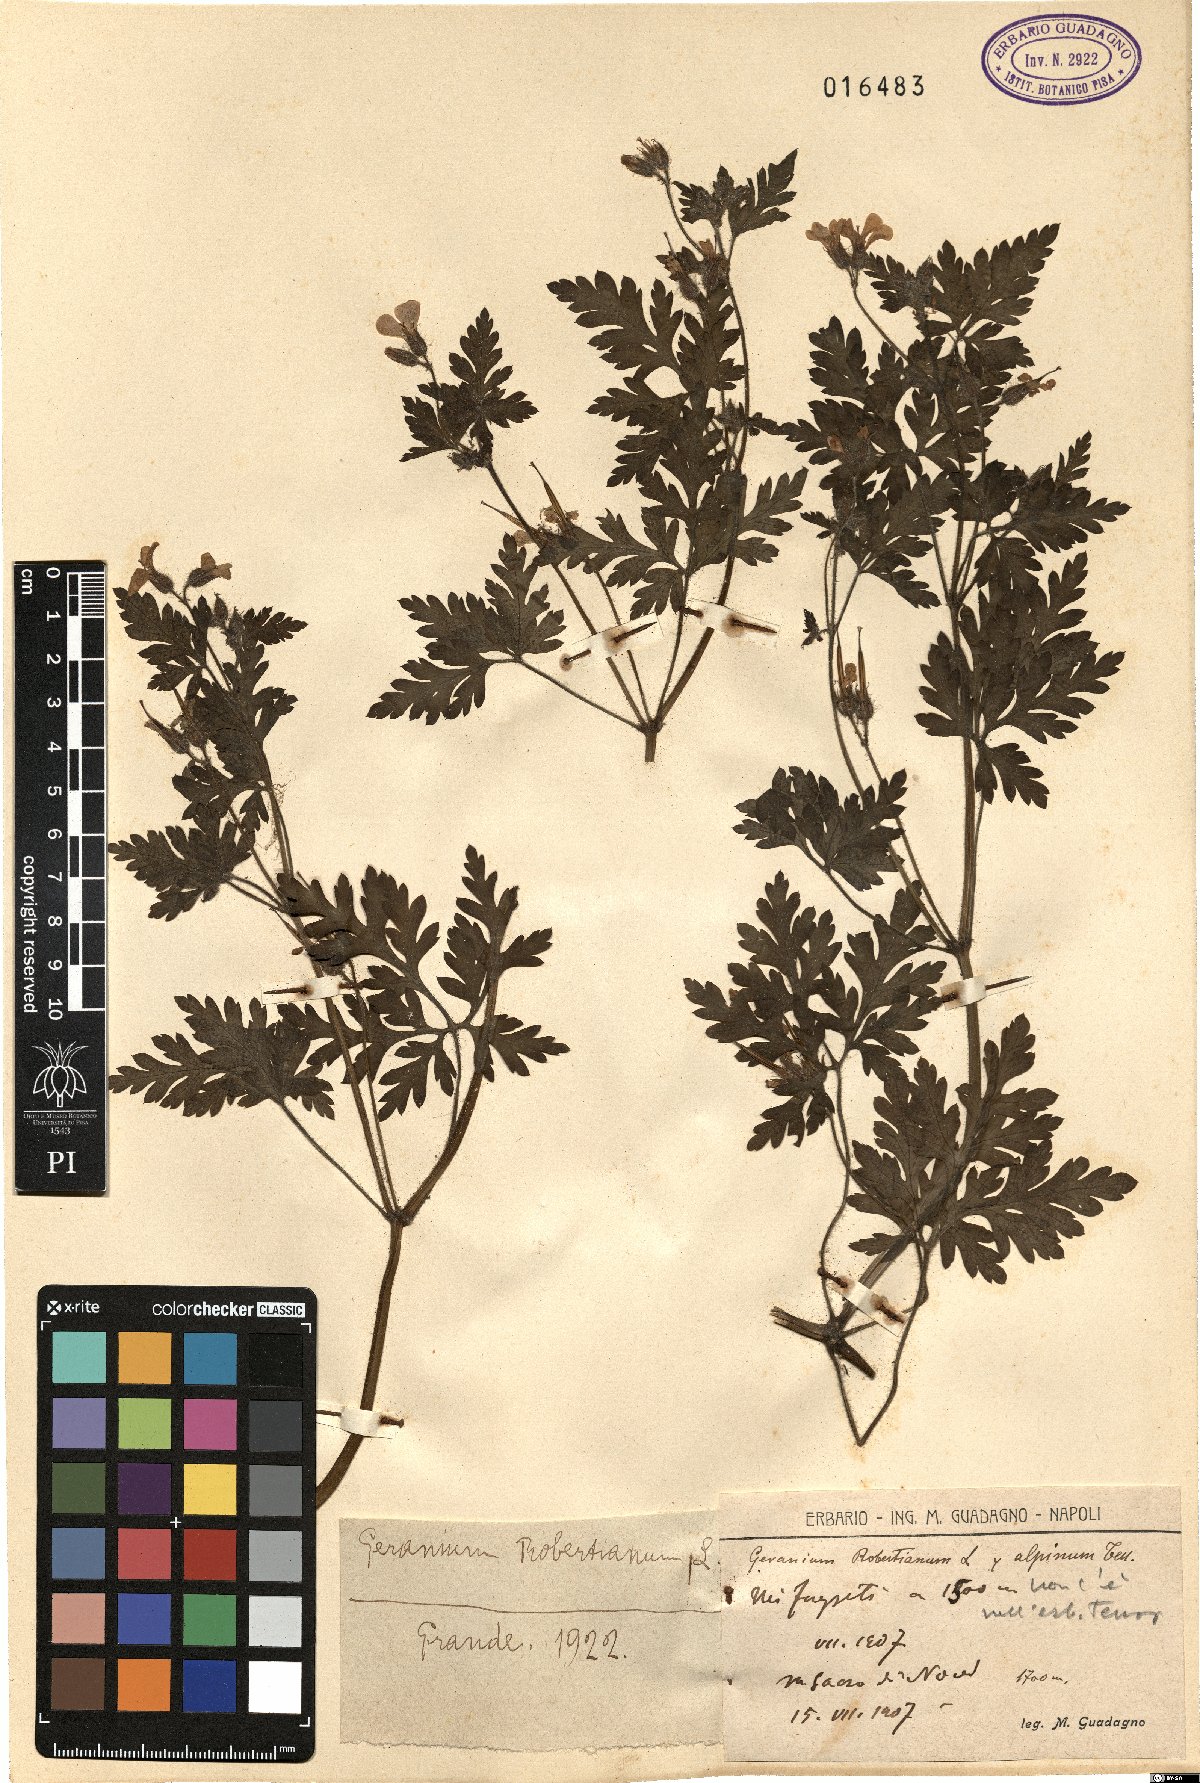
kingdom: Plantae
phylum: Tracheophyta
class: Magnoliopsida
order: Geraniales
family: Geraniaceae
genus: Geranium
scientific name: Geranium robertianum
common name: Herb-robert
